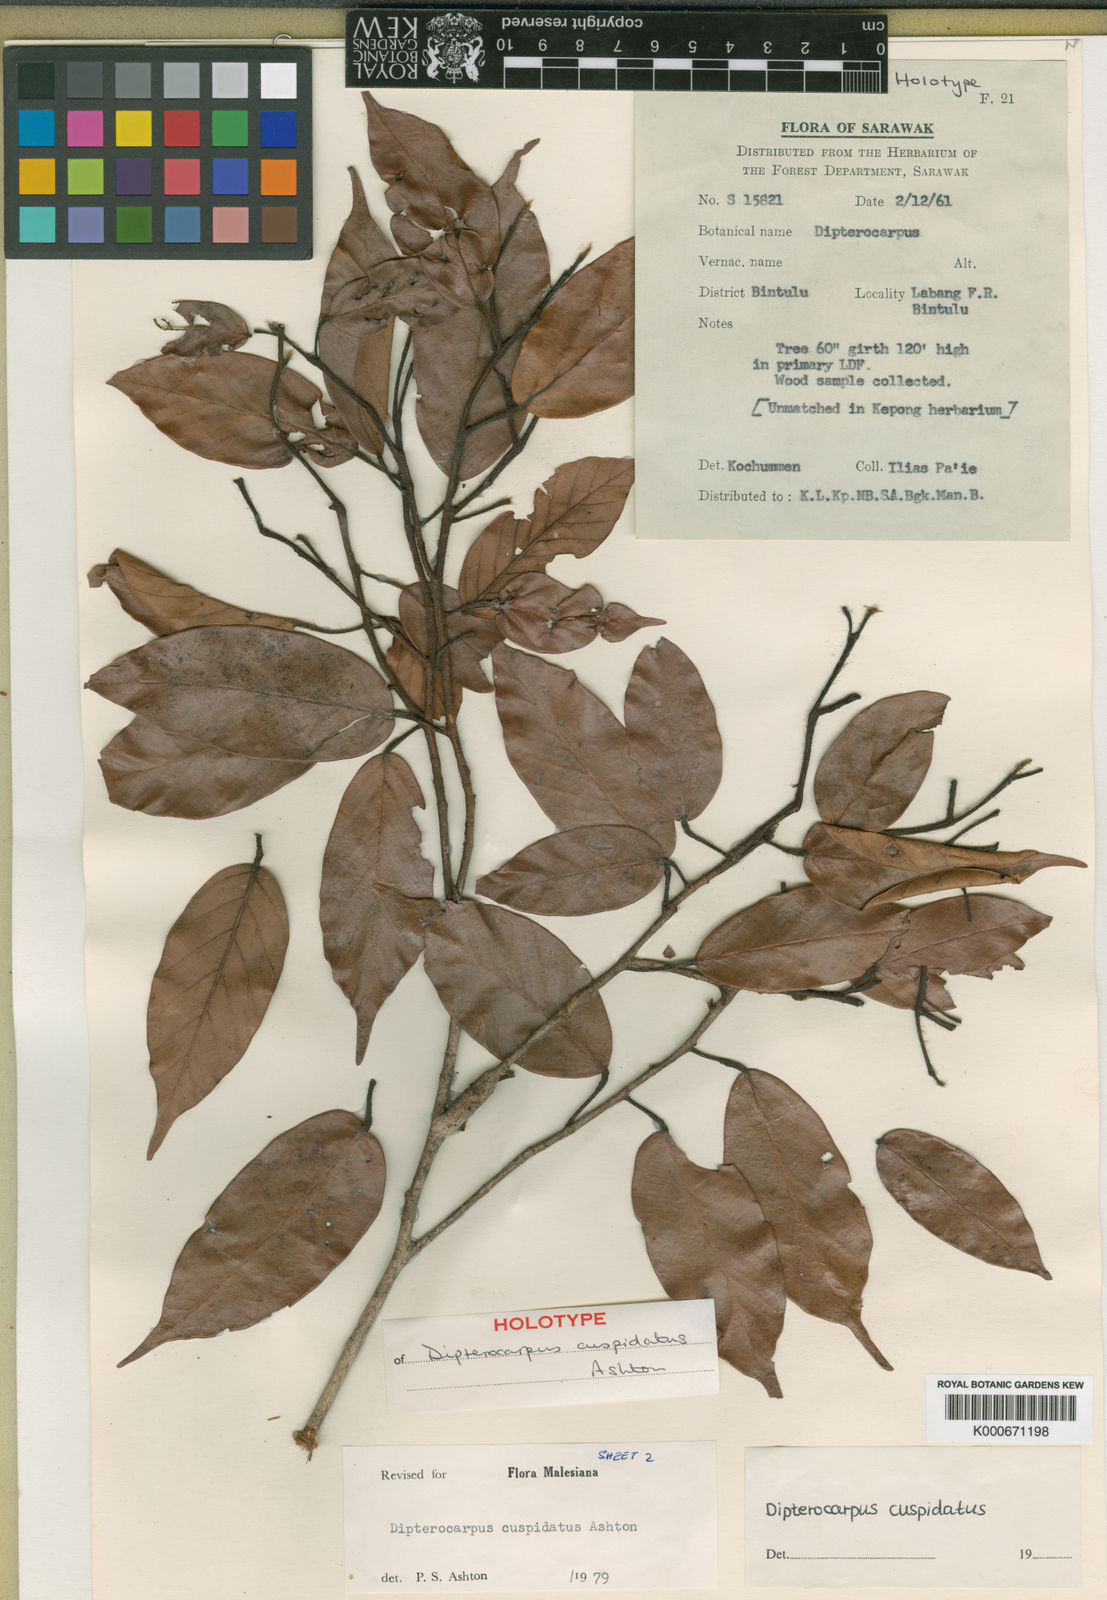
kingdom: Plantae
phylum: Tracheophyta
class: Magnoliopsida
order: Malvales
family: Dipterocarpaceae
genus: Dipterocarpus
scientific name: Dipterocarpus cuspidatus
